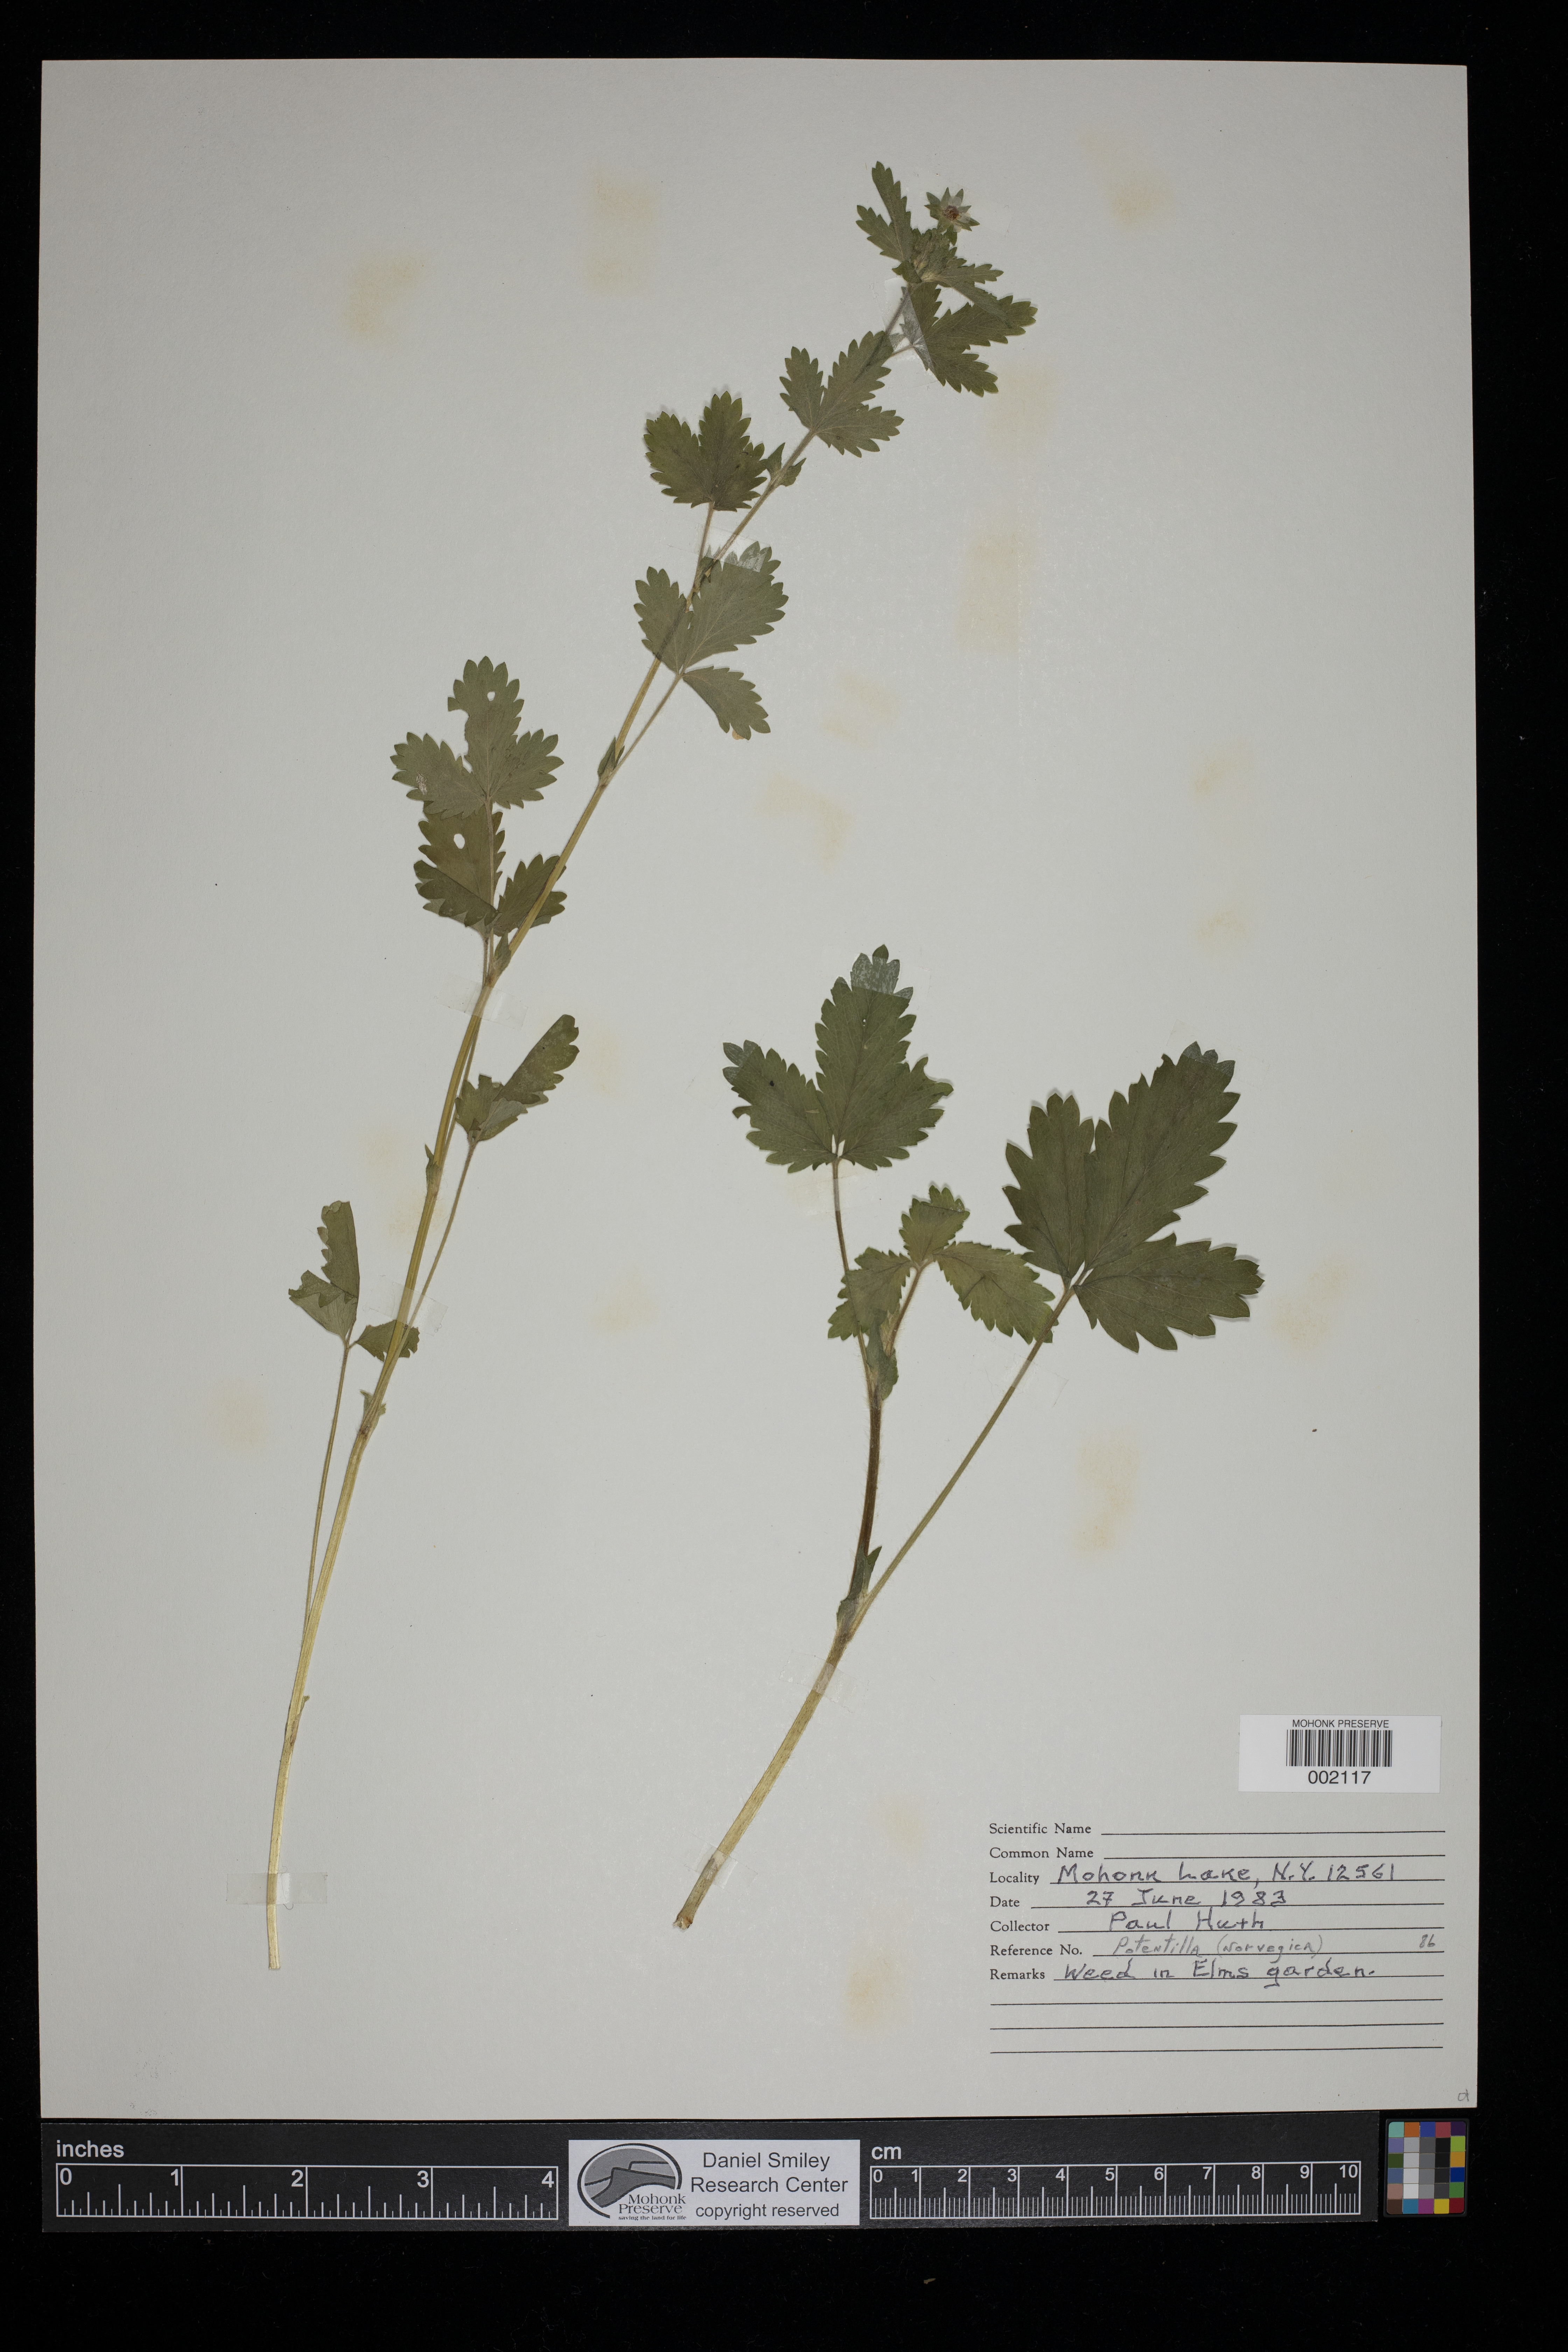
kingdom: Plantae
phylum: Tracheophyta
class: Magnoliopsida
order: Rosales
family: Rosaceae
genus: Potentilla
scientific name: Potentilla norvegica
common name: Ternate-leaved cinquefoil
